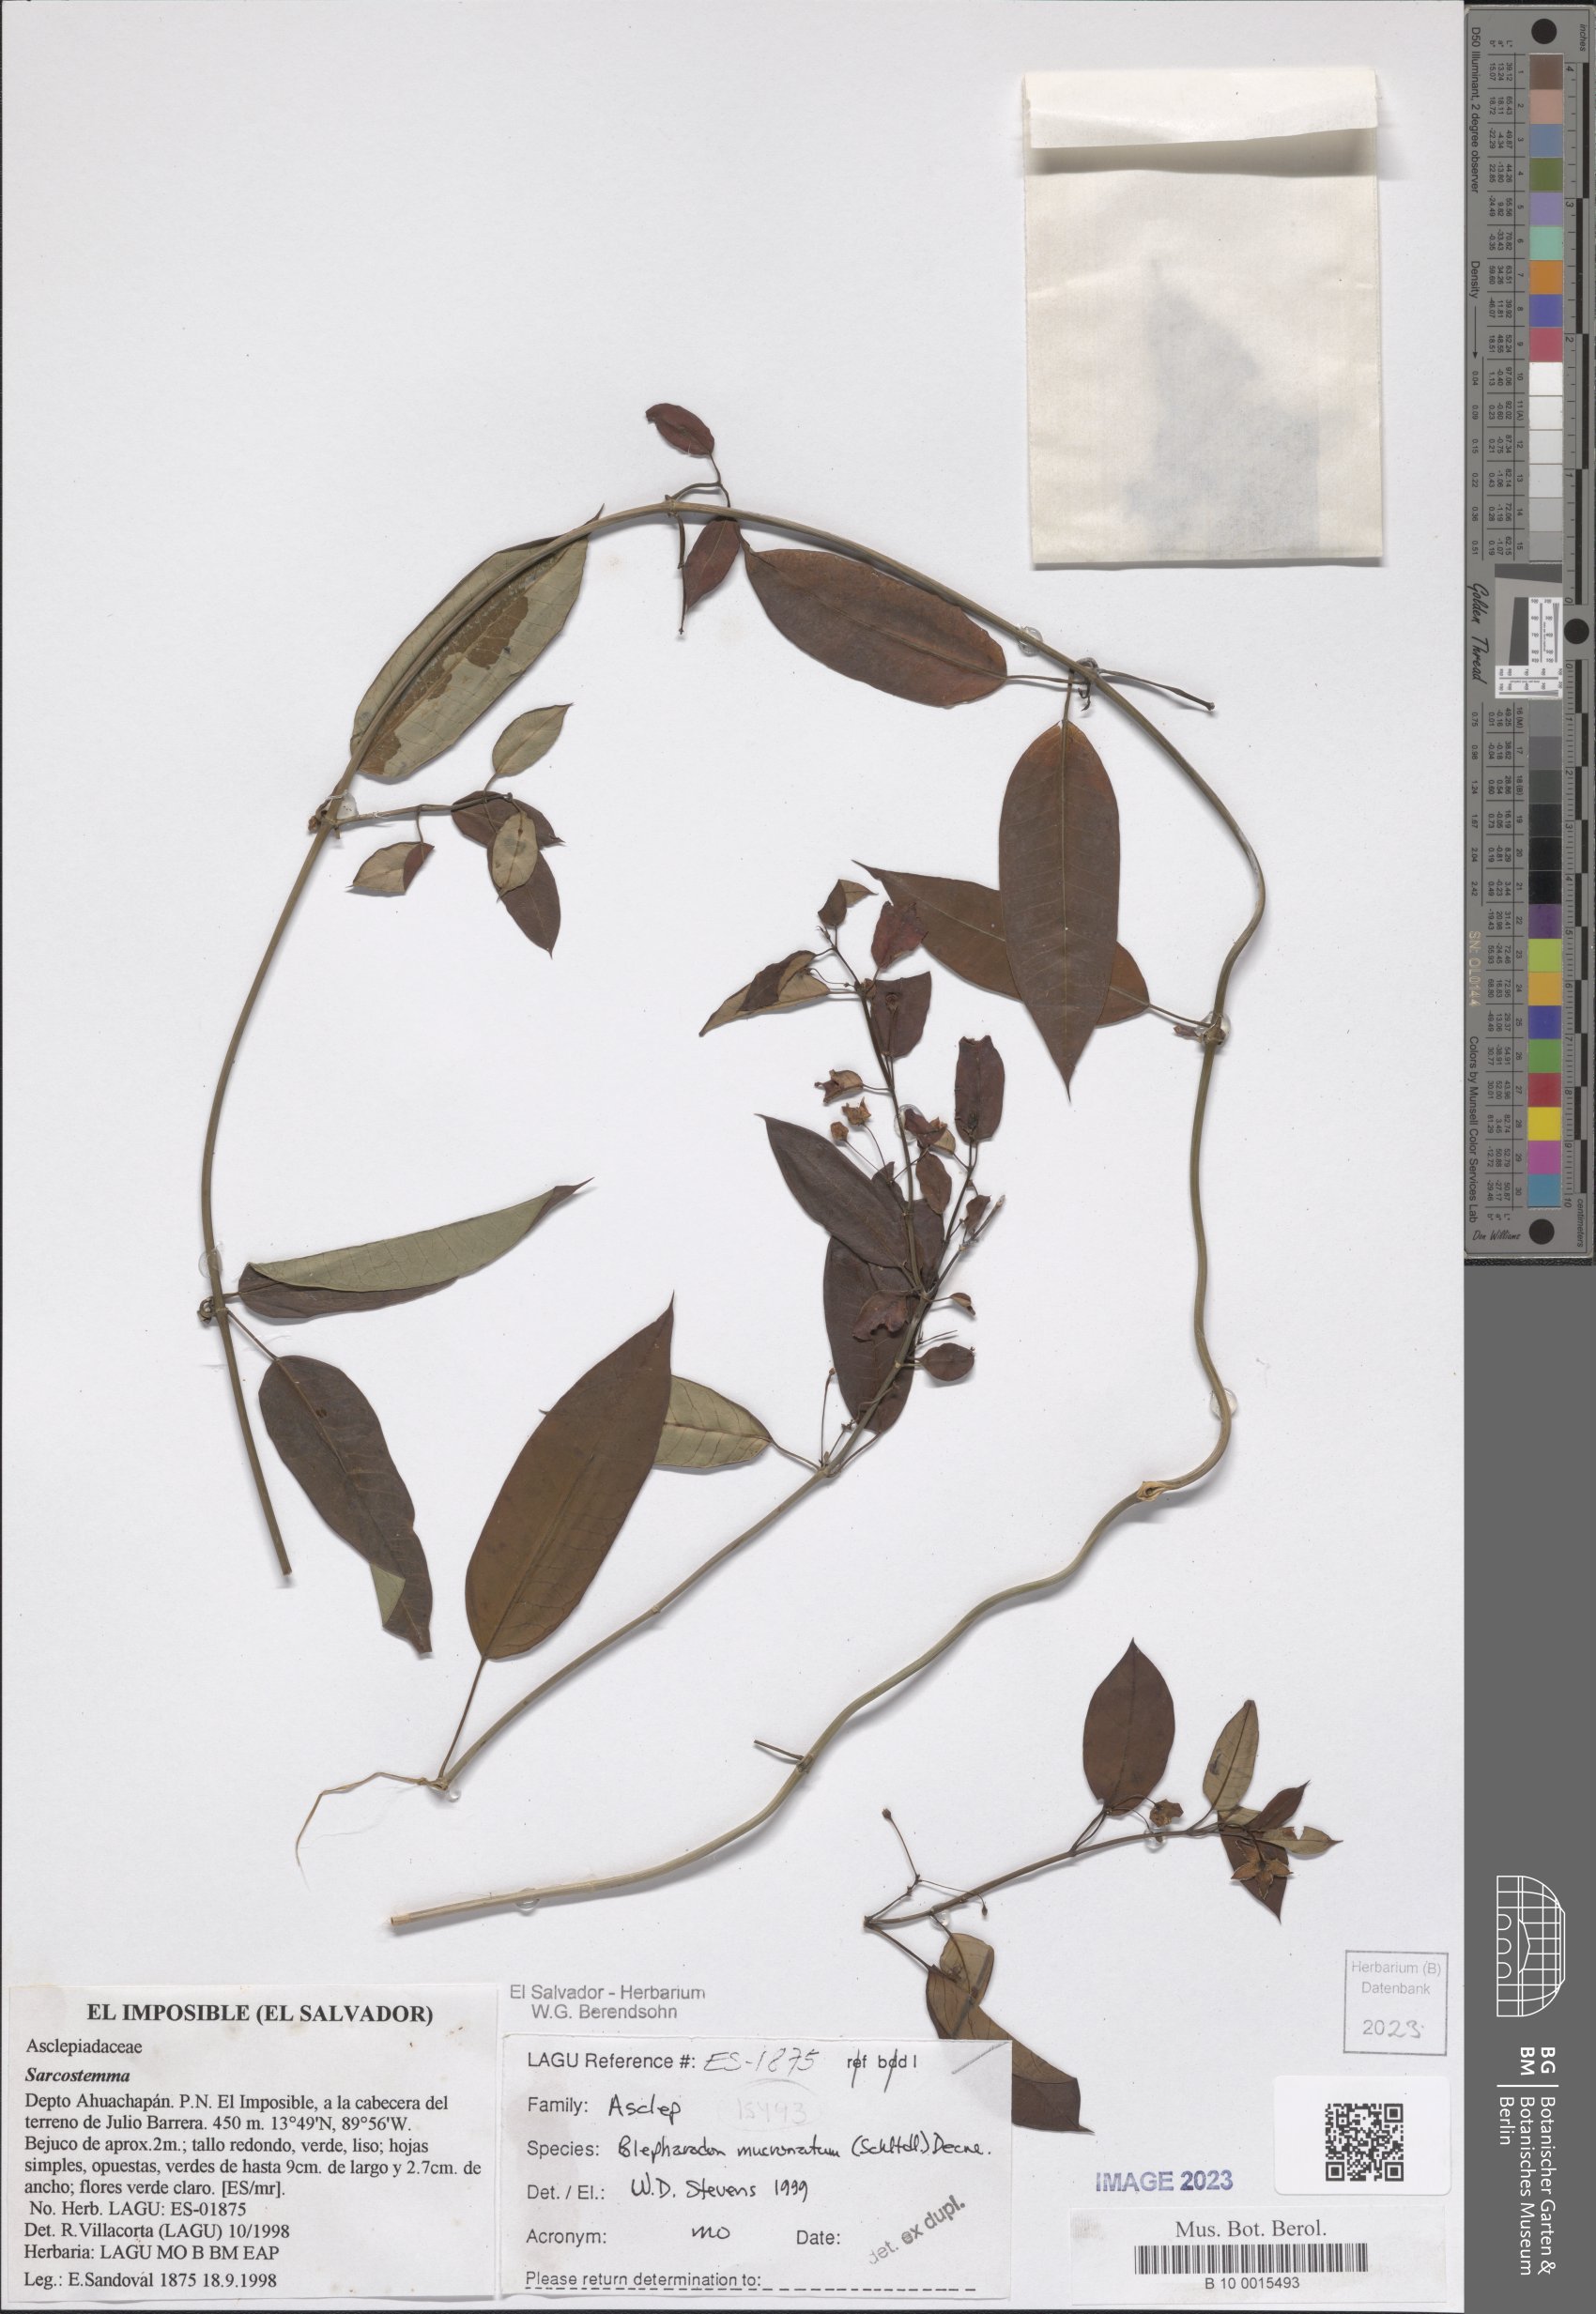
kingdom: Plantae
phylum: Tracheophyta
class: Magnoliopsida
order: Gentianales
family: Apocynaceae
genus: Vailia
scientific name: Vailia anomala
